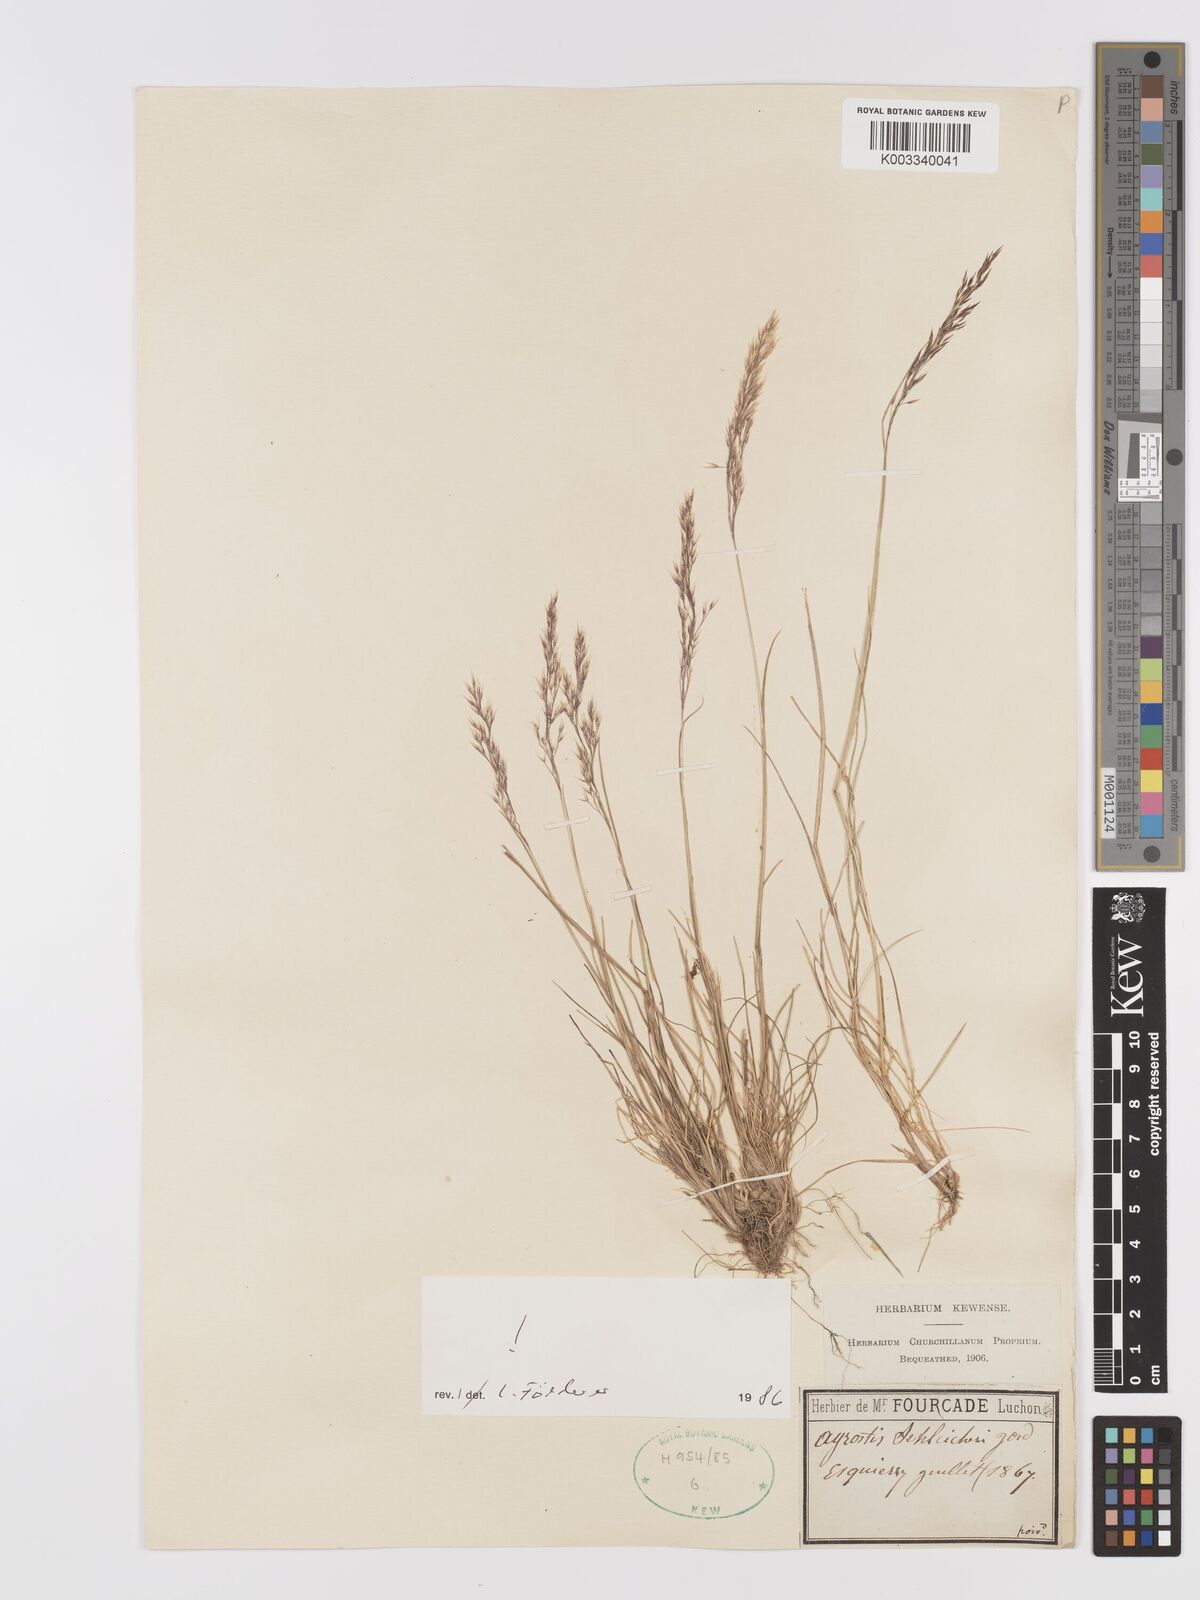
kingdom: Plantae
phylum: Tracheophyta
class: Liliopsida
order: Poales
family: Poaceae
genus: Alpagrostis
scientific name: Alpagrostis schleicheri
